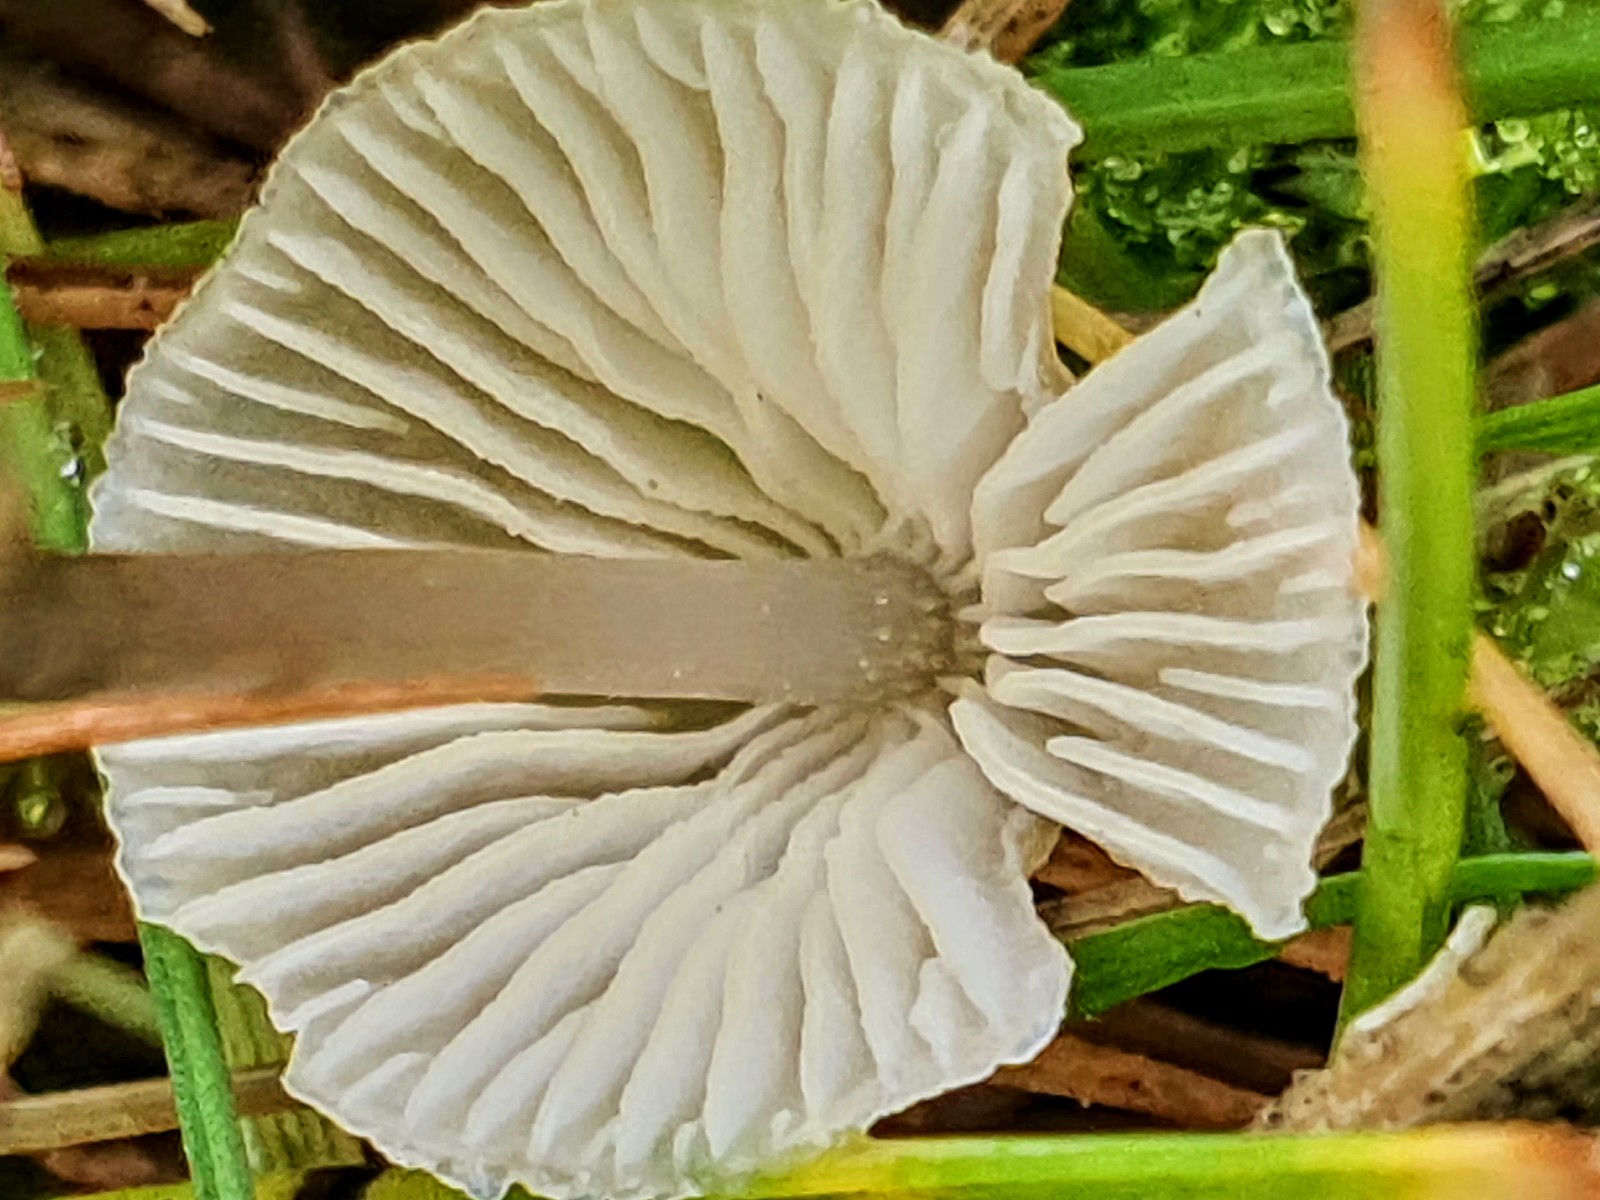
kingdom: Fungi
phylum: Basidiomycota
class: Agaricomycetes
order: Agaricales
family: Mycenaceae
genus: Mycena
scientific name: Mycena flavescens
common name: grågul huesvamp
